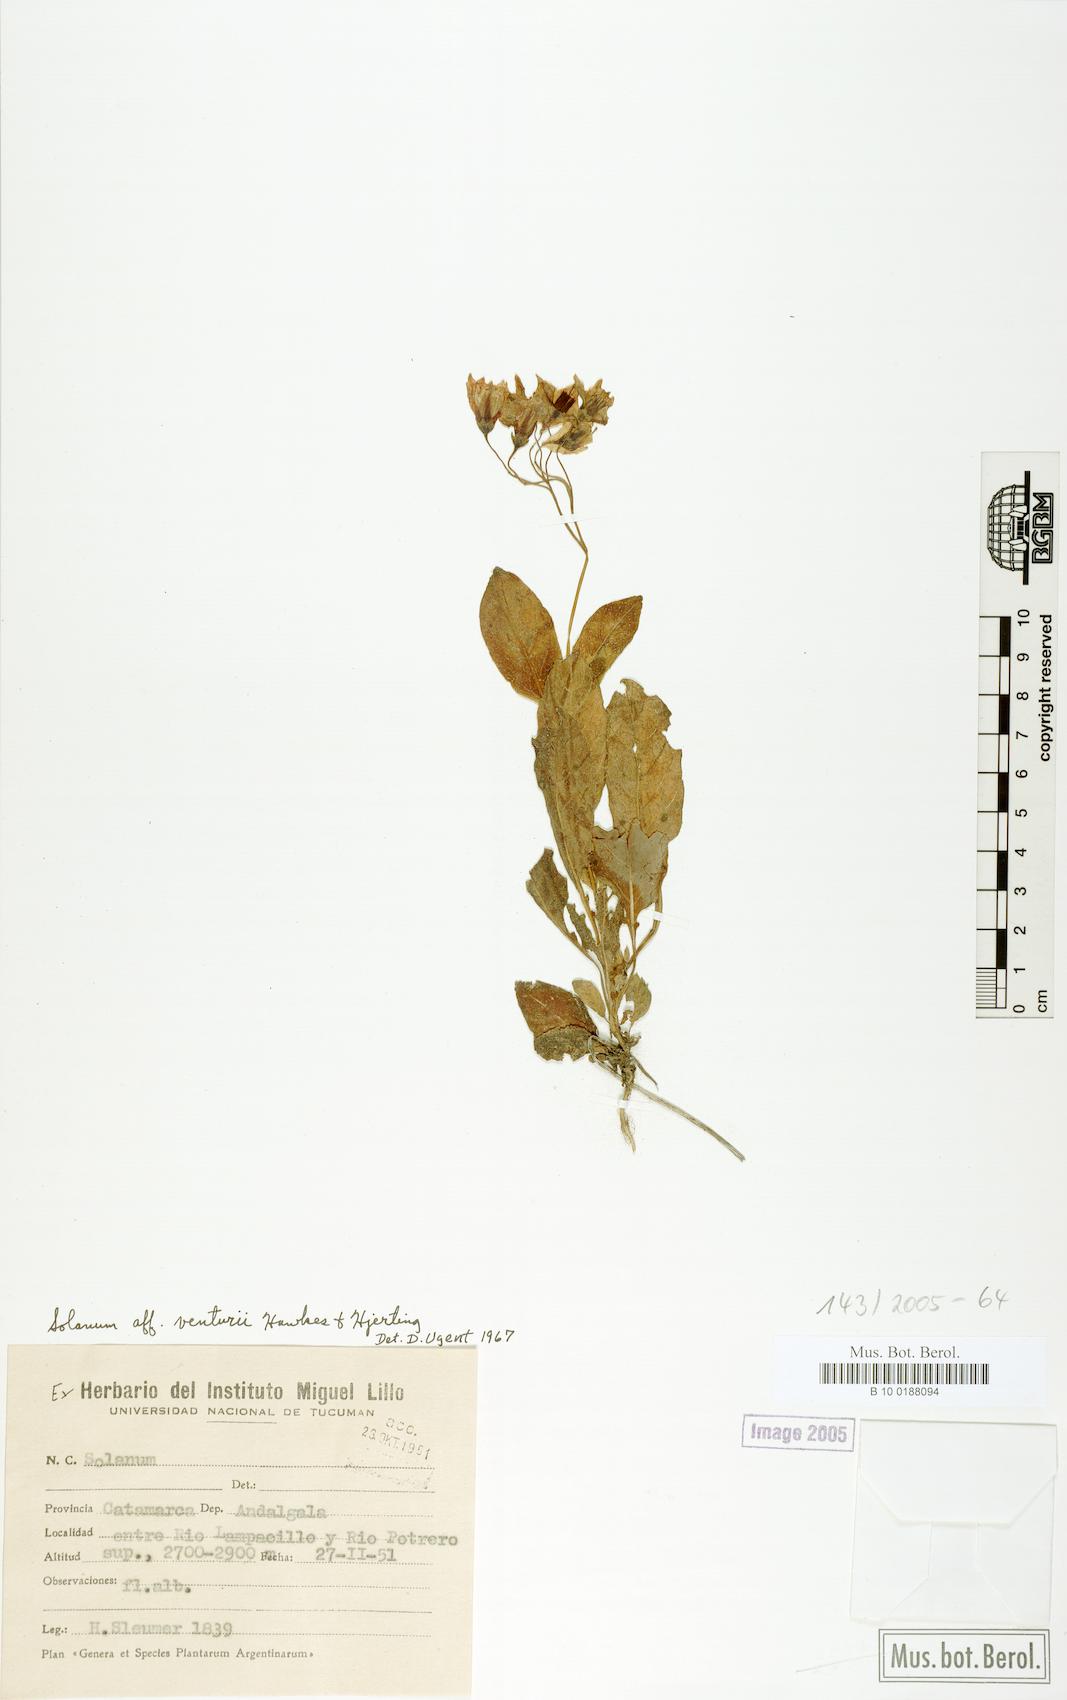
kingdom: Plantae
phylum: Tracheophyta
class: Magnoliopsida
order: Solanales
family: Solanaceae
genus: Solanum
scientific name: Solanum venturii
